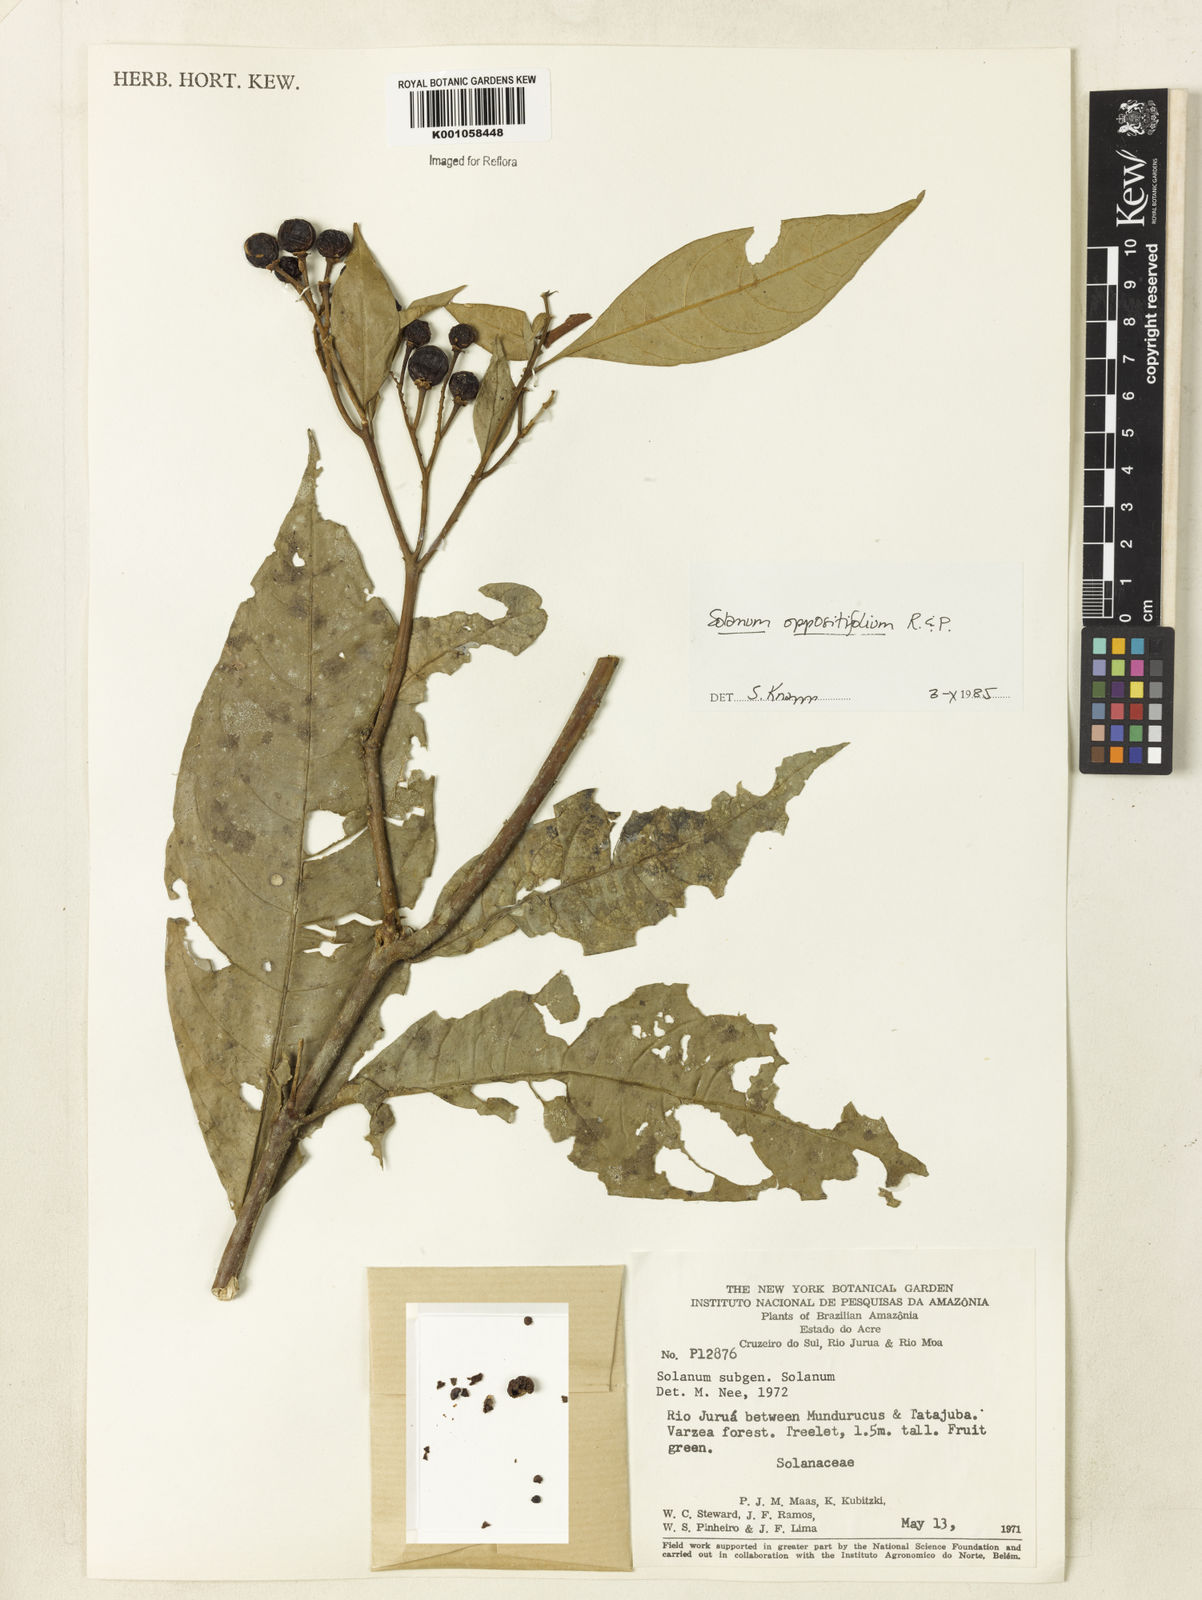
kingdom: Plantae
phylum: Tracheophyta
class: Magnoliopsida
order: Solanales
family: Solanaceae
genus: Solanum
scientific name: Solanum oppositifolium
